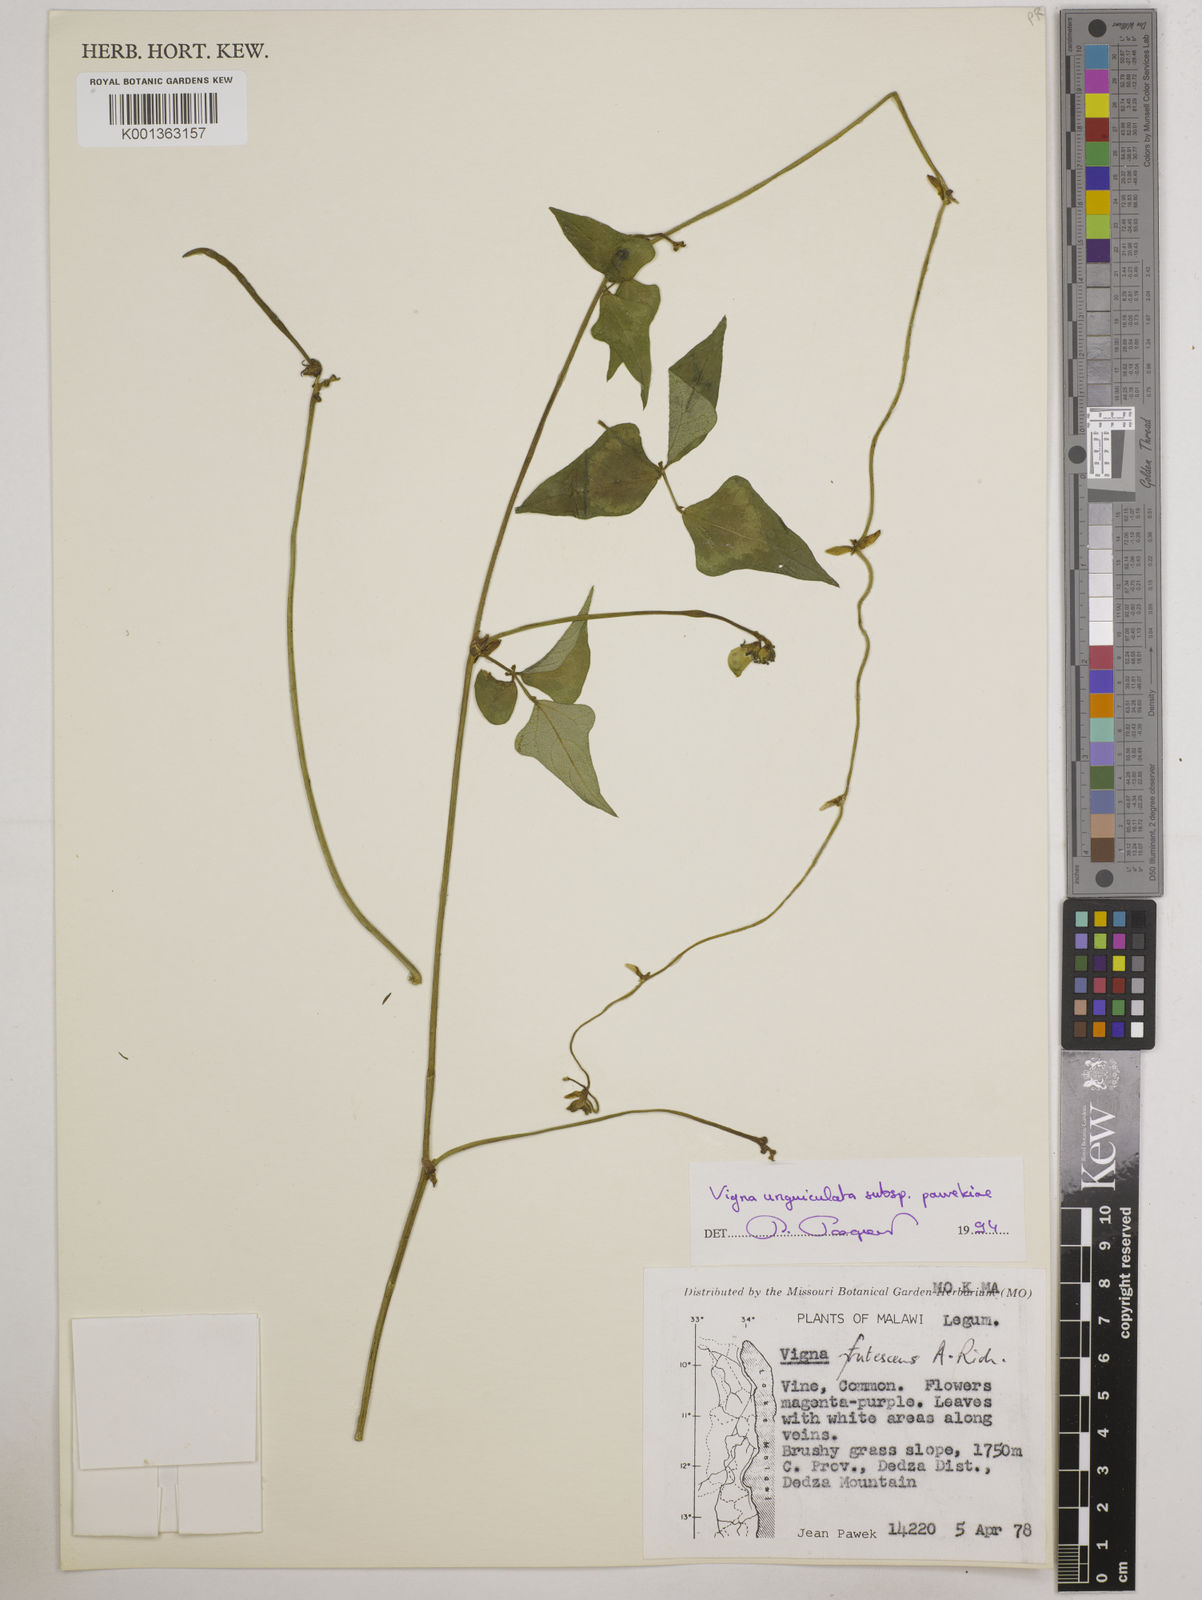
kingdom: Plantae
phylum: Tracheophyta
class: Magnoliopsida
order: Fabales
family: Fabaceae
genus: Vigna
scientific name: Vigna unguiculata
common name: Cowpea
